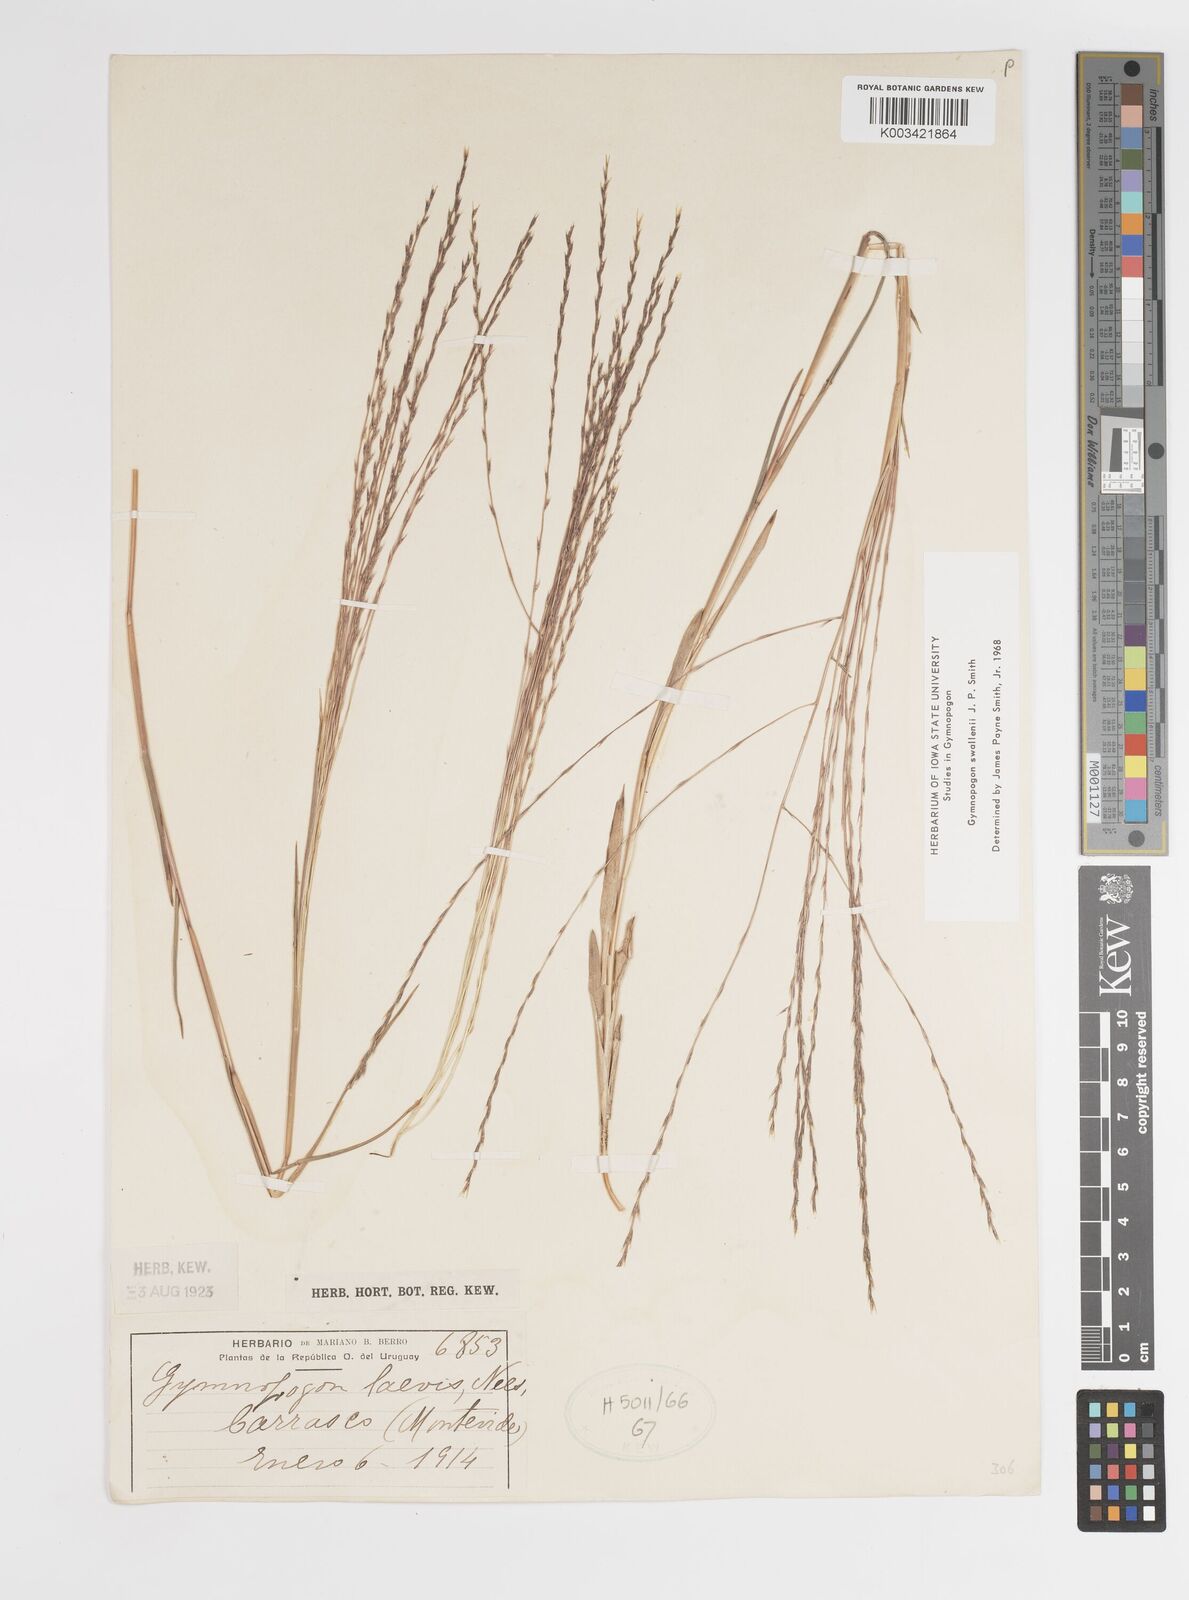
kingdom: Plantae
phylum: Tracheophyta
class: Liliopsida
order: Poales
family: Poaceae
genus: Gymnopogon
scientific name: Gymnopogon legrandii
